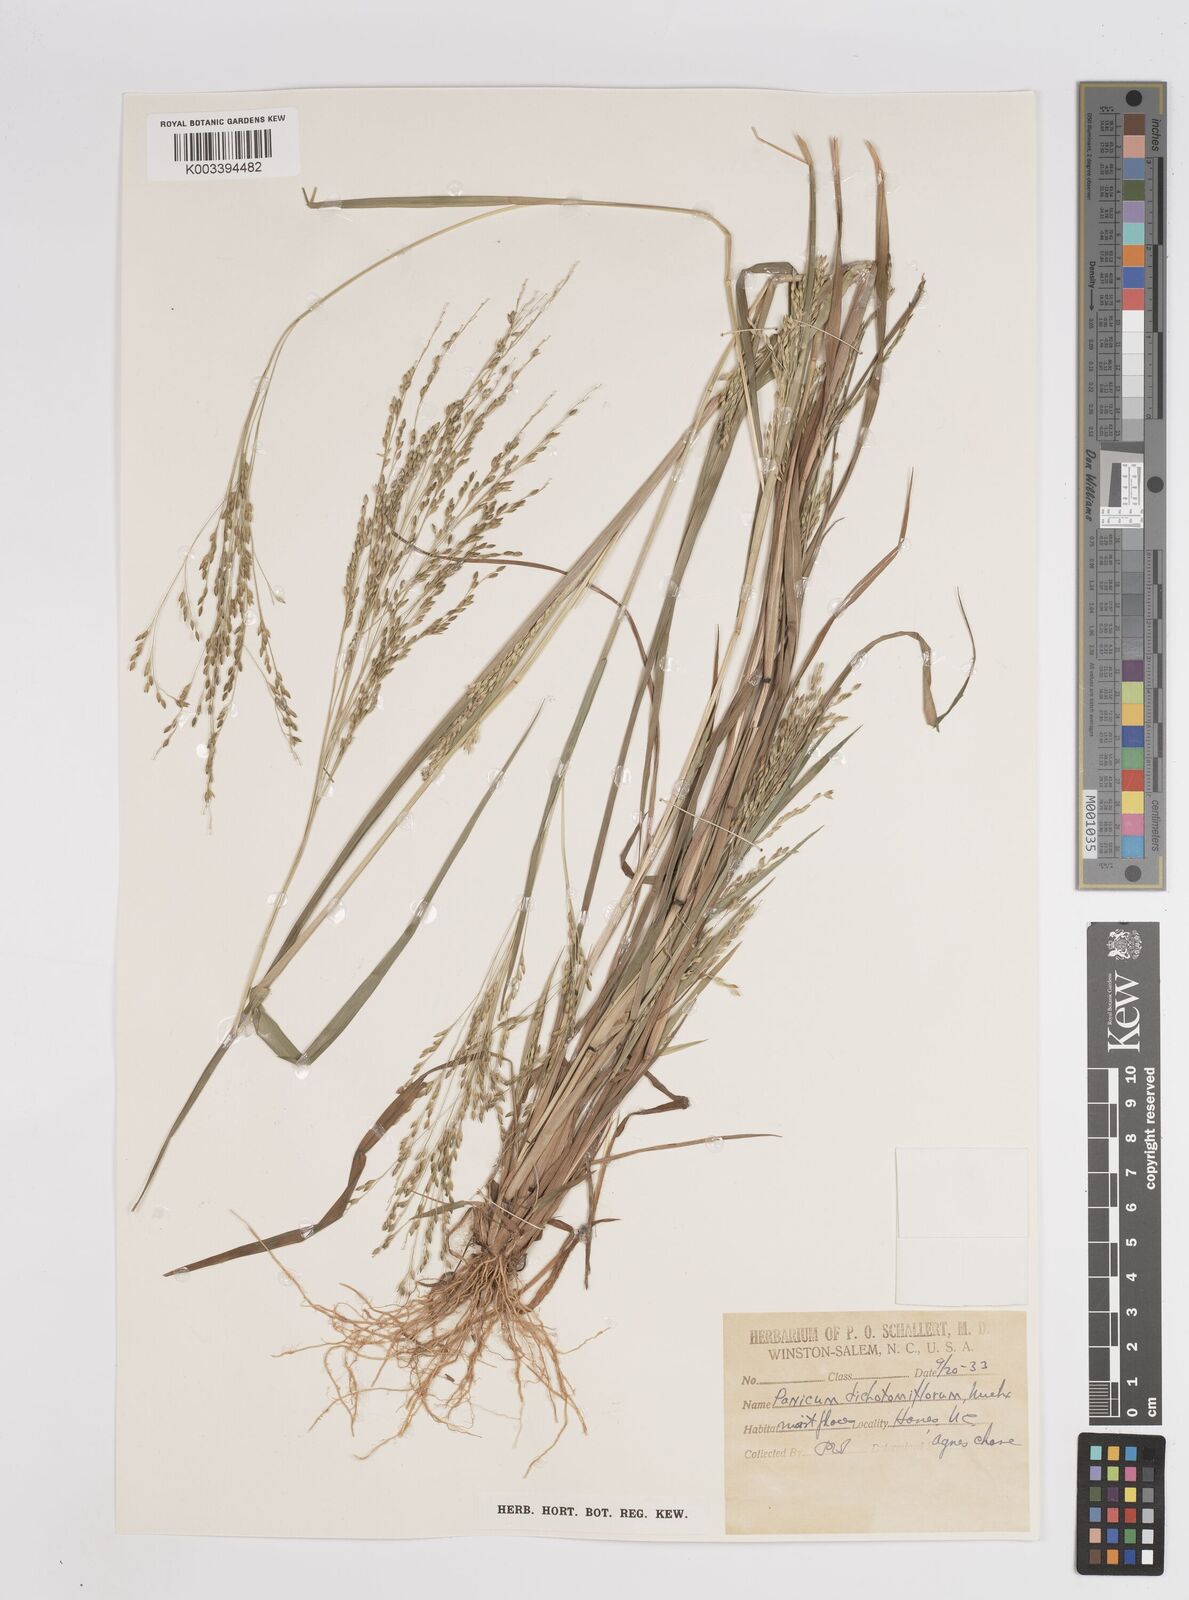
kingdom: Plantae
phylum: Tracheophyta
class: Liliopsida
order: Poales
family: Poaceae
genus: Panicum
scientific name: Panicum dichotomiflorum
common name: Autumn millet
